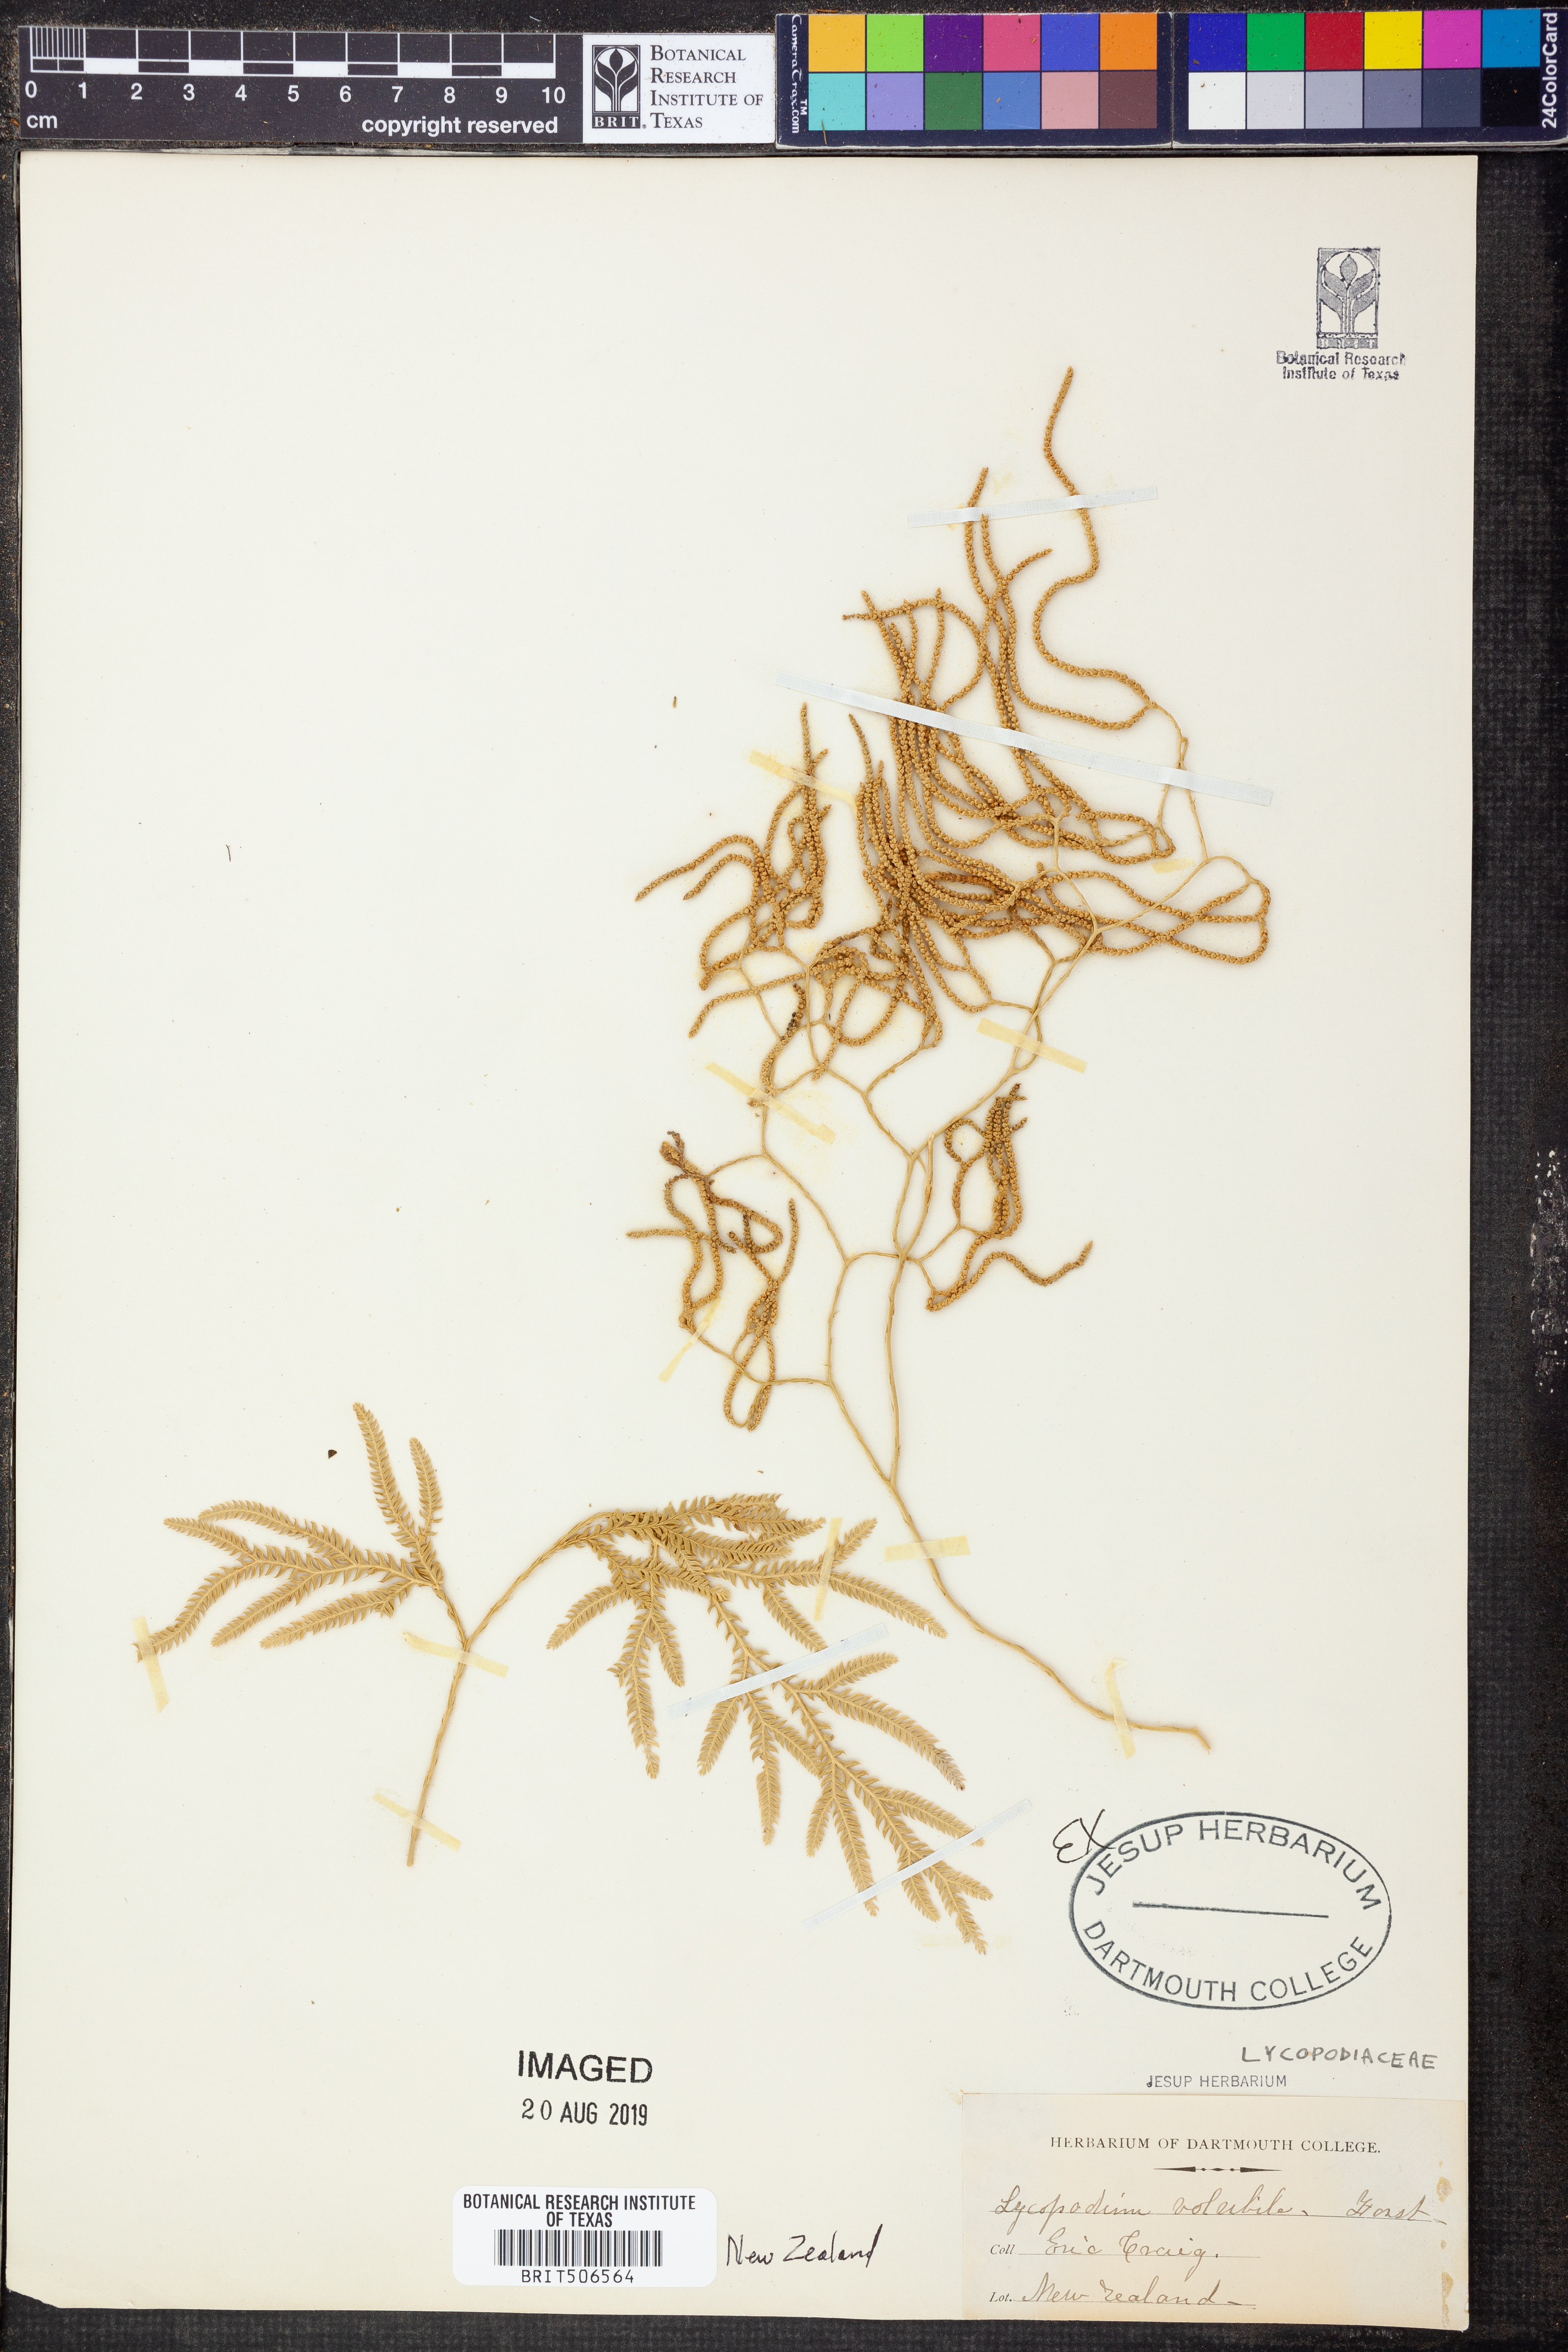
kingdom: Plantae
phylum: Tracheophyta
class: Lycopodiopsida
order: Lycopodiales
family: Lycopodiaceae
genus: Pseudodiphasium
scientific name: Pseudodiphasium volubile
